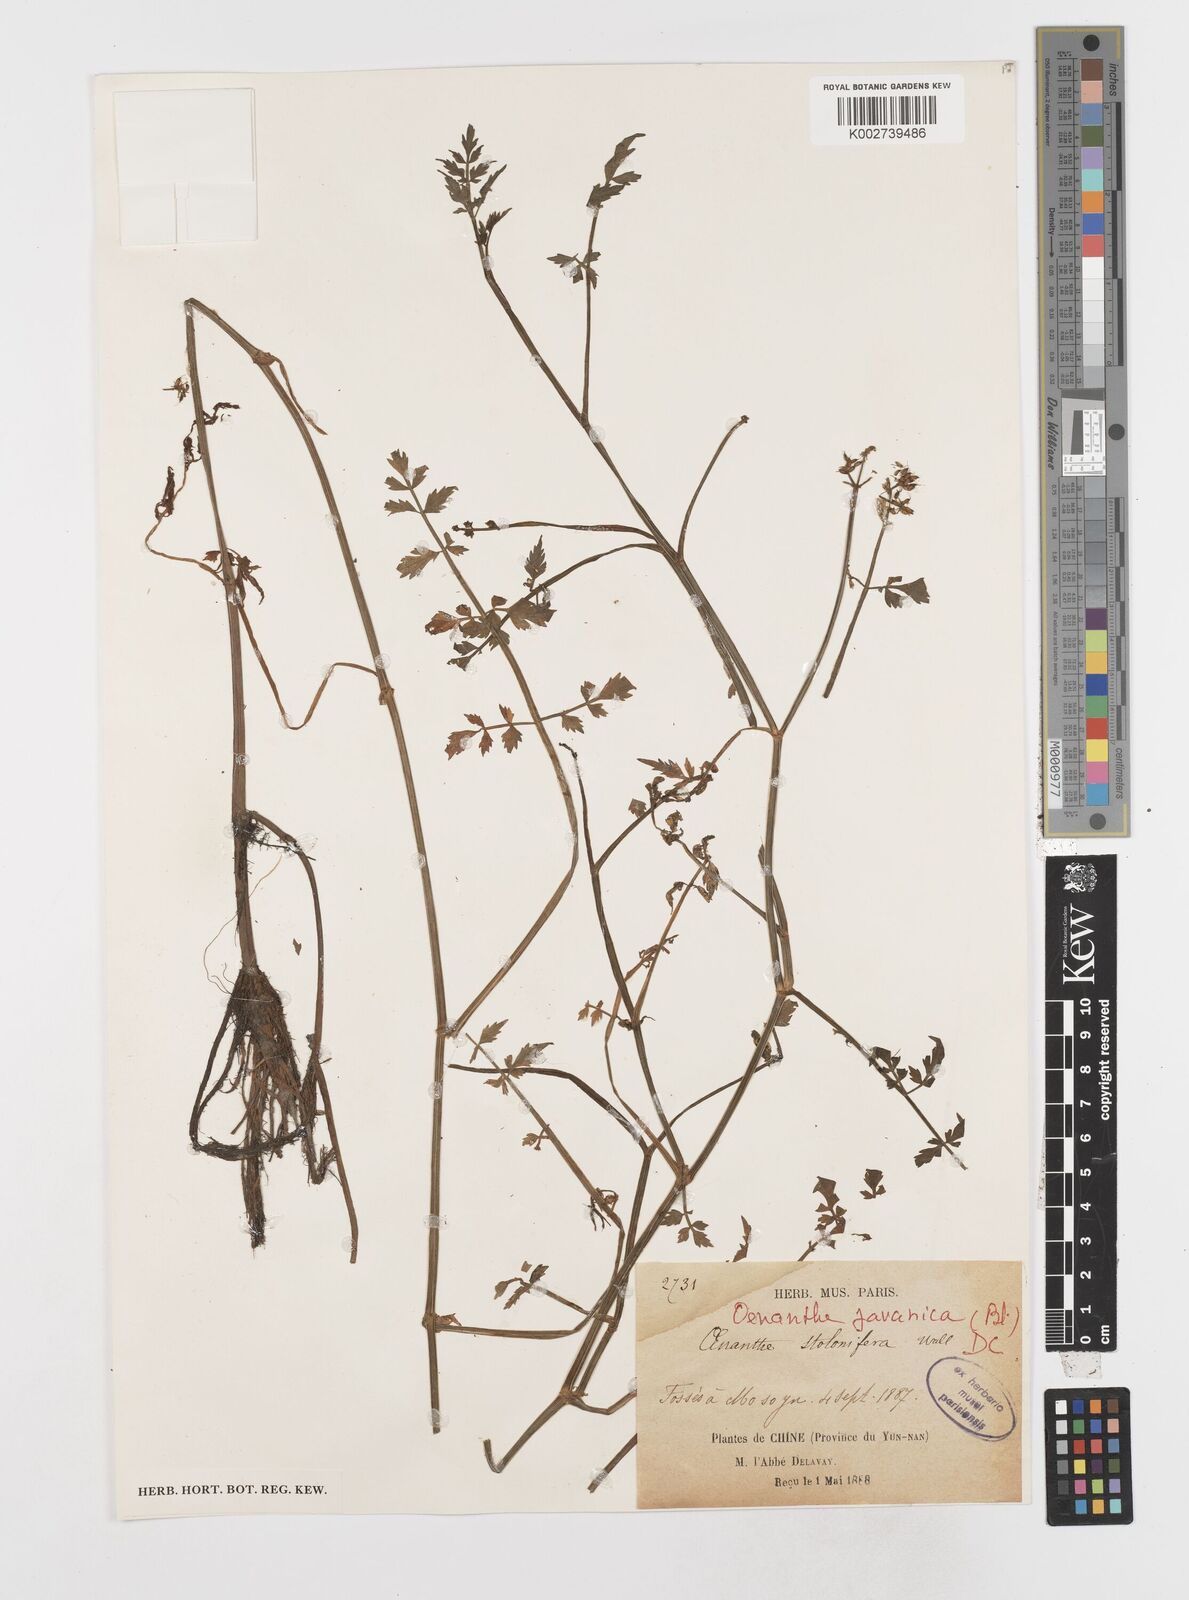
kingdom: Plantae
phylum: Tracheophyta
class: Magnoliopsida
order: Apiales
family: Apiaceae
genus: Oenanthe
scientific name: Oenanthe javanica
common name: Java water-dropwort
